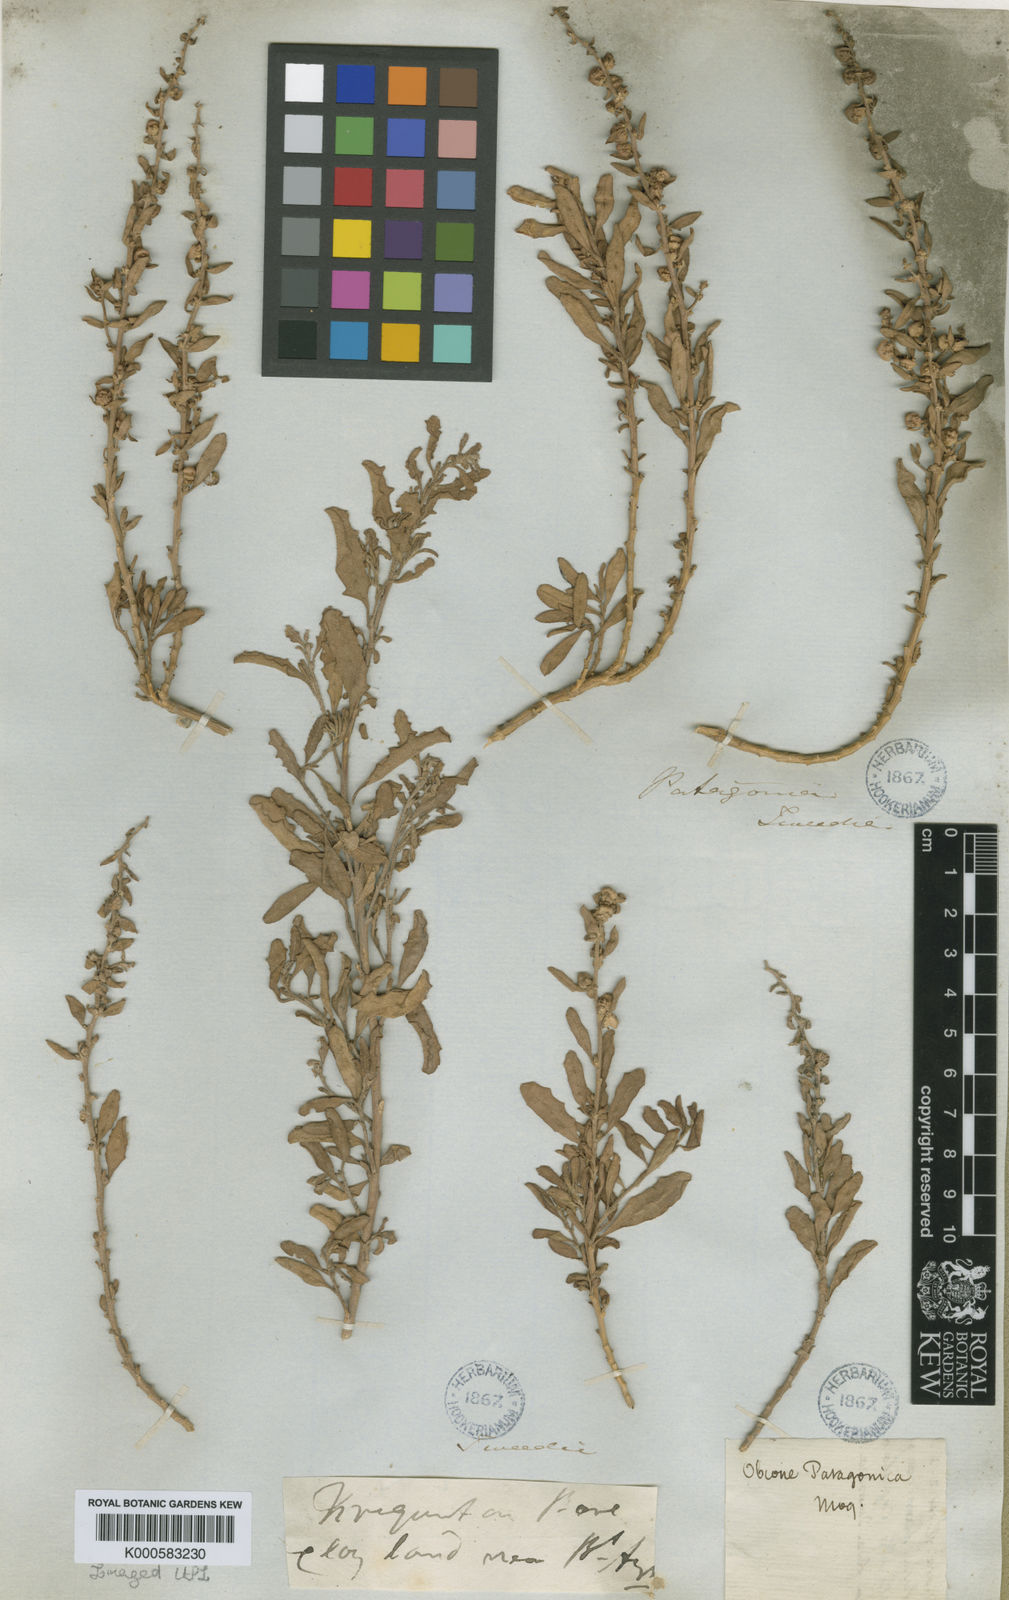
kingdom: Plantae
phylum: Tracheophyta
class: Magnoliopsida
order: Caryophyllales
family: Amaranthaceae
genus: Atriplex
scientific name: Atriplex patagonica
